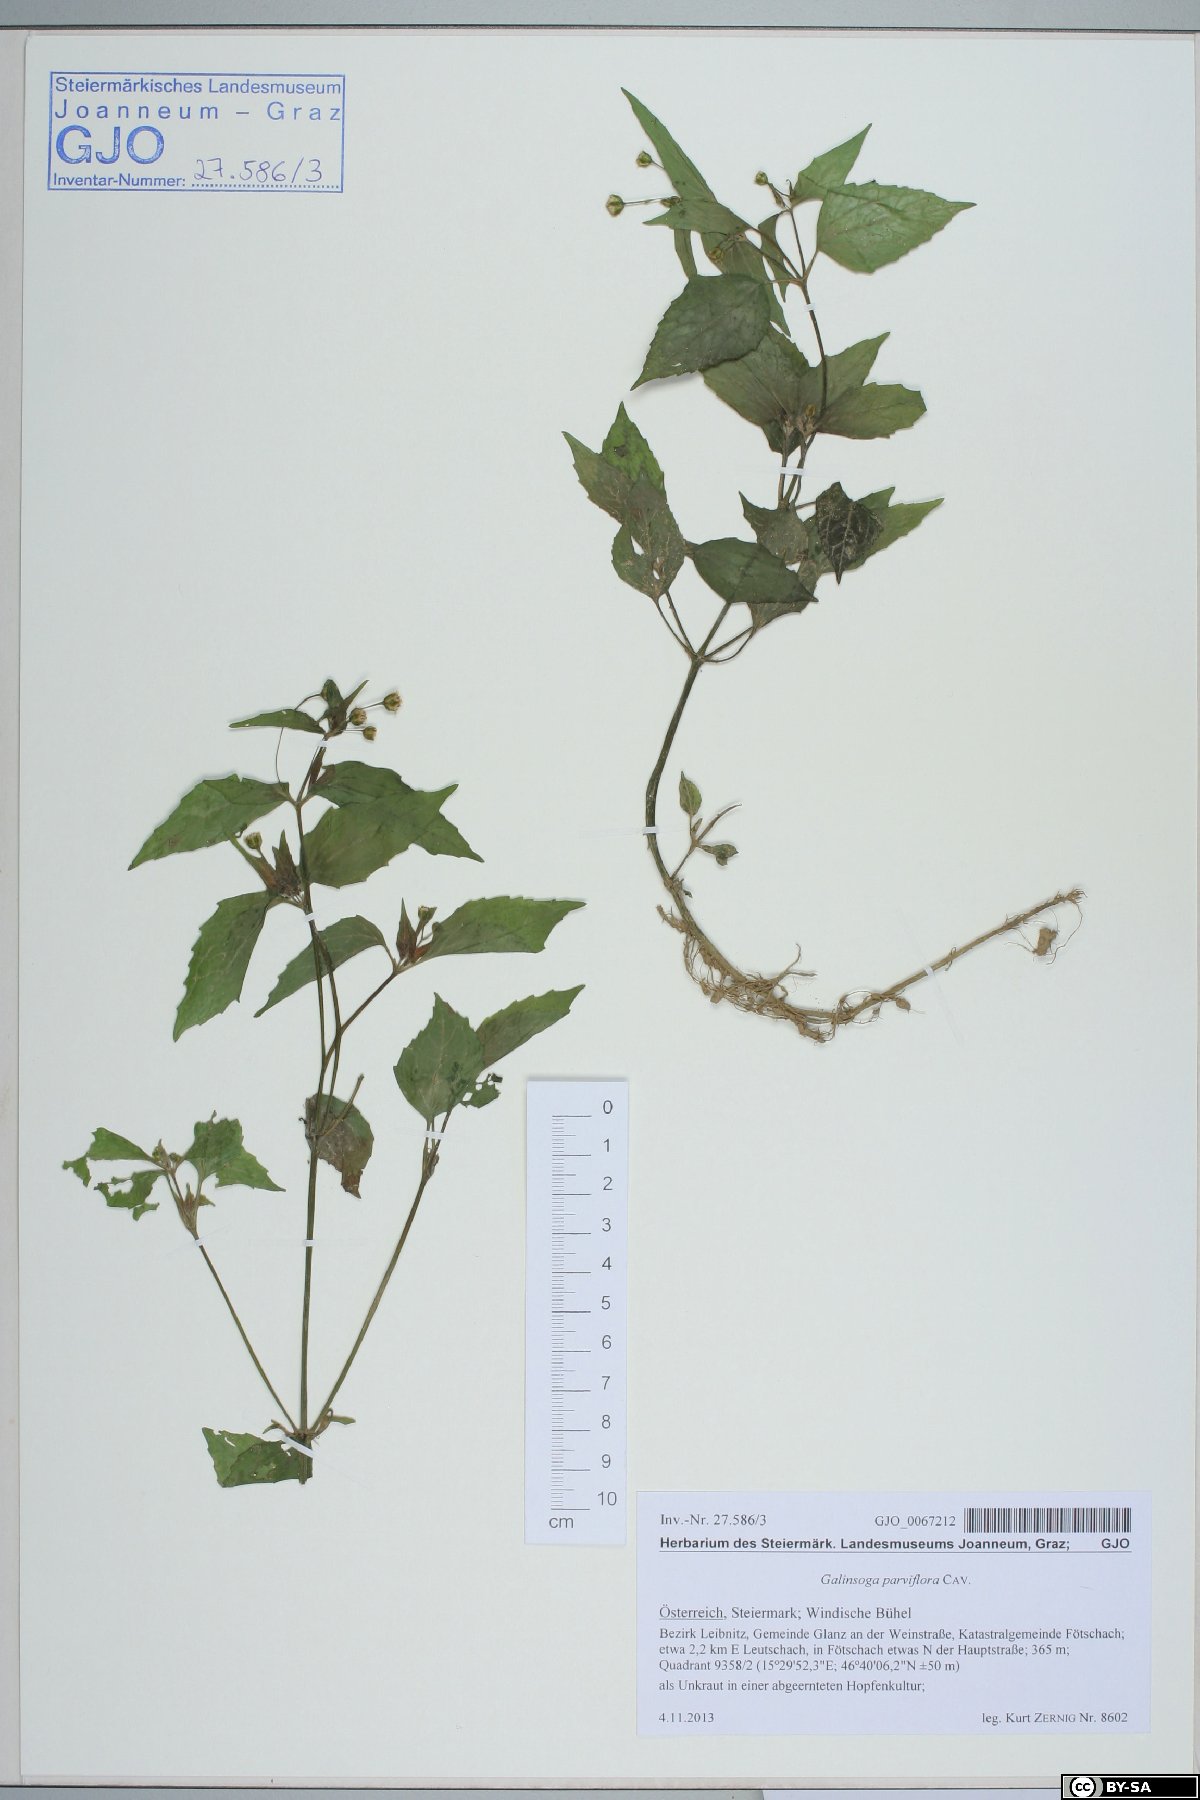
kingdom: Plantae
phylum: Tracheophyta
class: Magnoliopsida
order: Asterales
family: Asteraceae
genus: Galinsoga
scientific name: Galinsoga parviflora
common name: Gallant soldier
